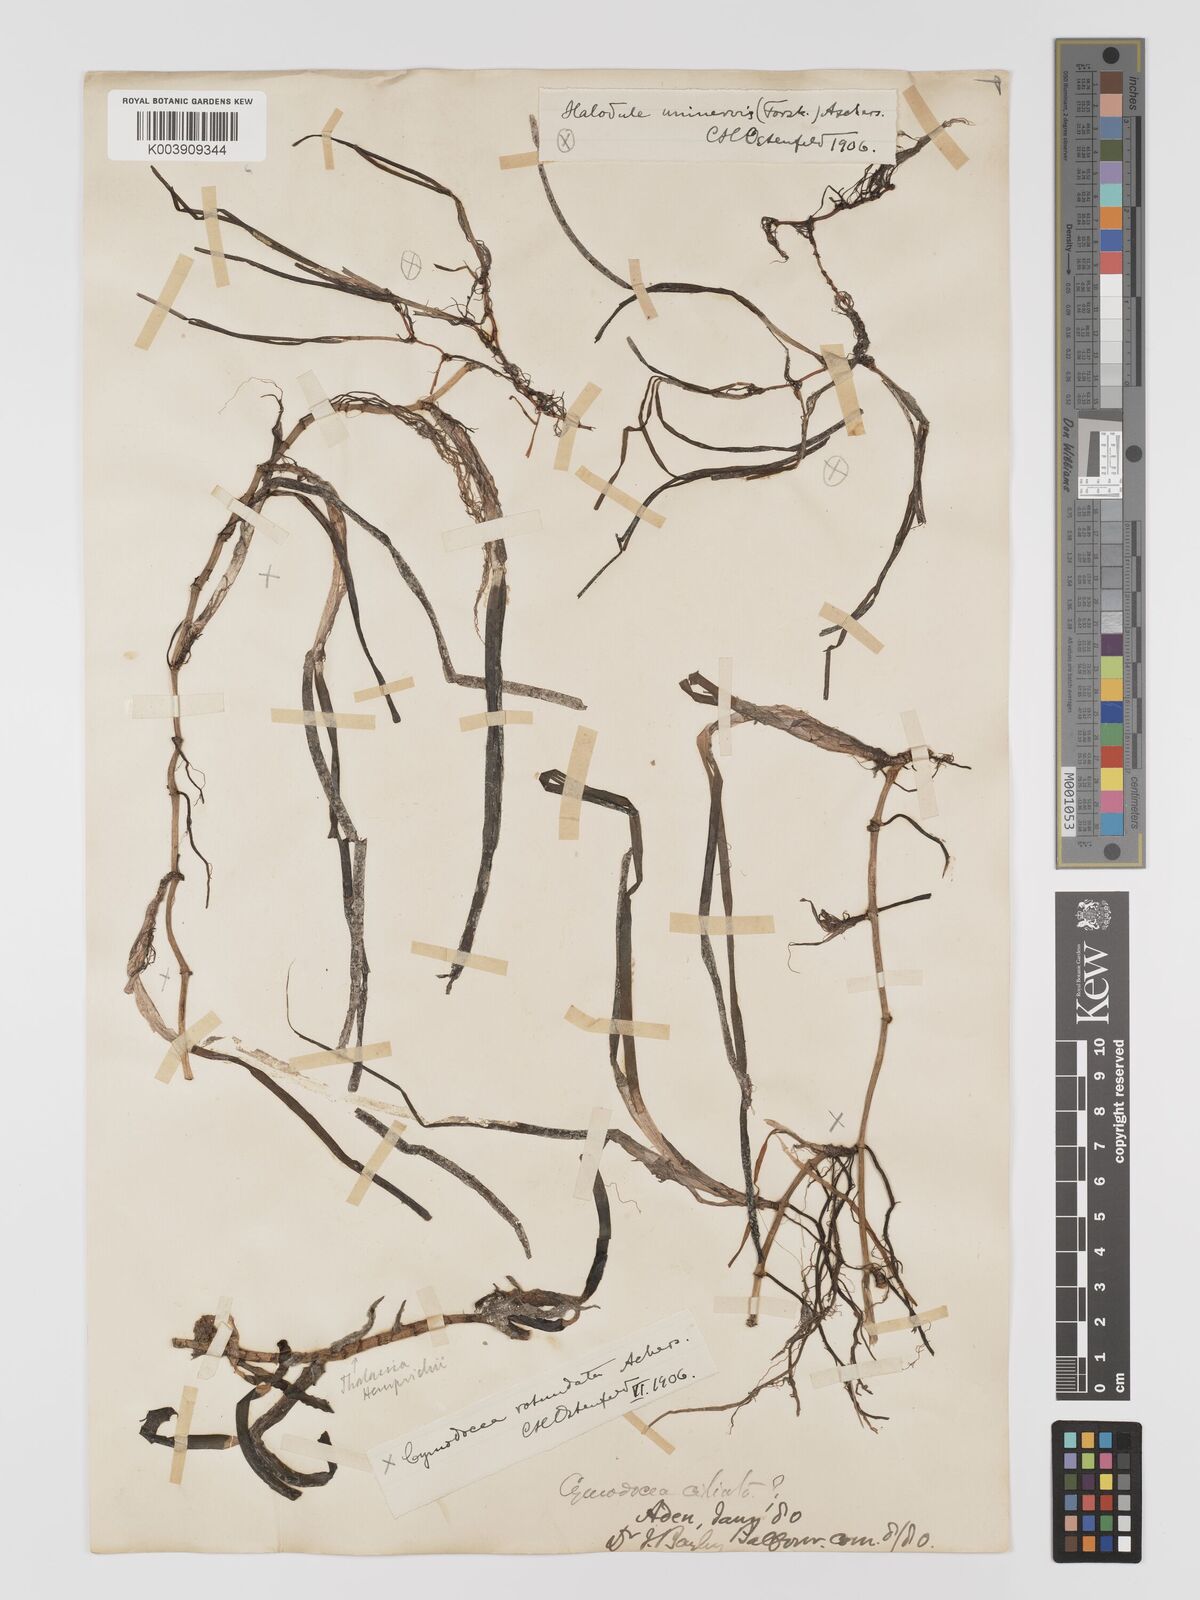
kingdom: Plantae
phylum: Tracheophyta
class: Liliopsida
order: Alismatales
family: Cymodoceaceae
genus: Cymodocea
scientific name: Cymodocea rotundata
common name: Species code: cr
